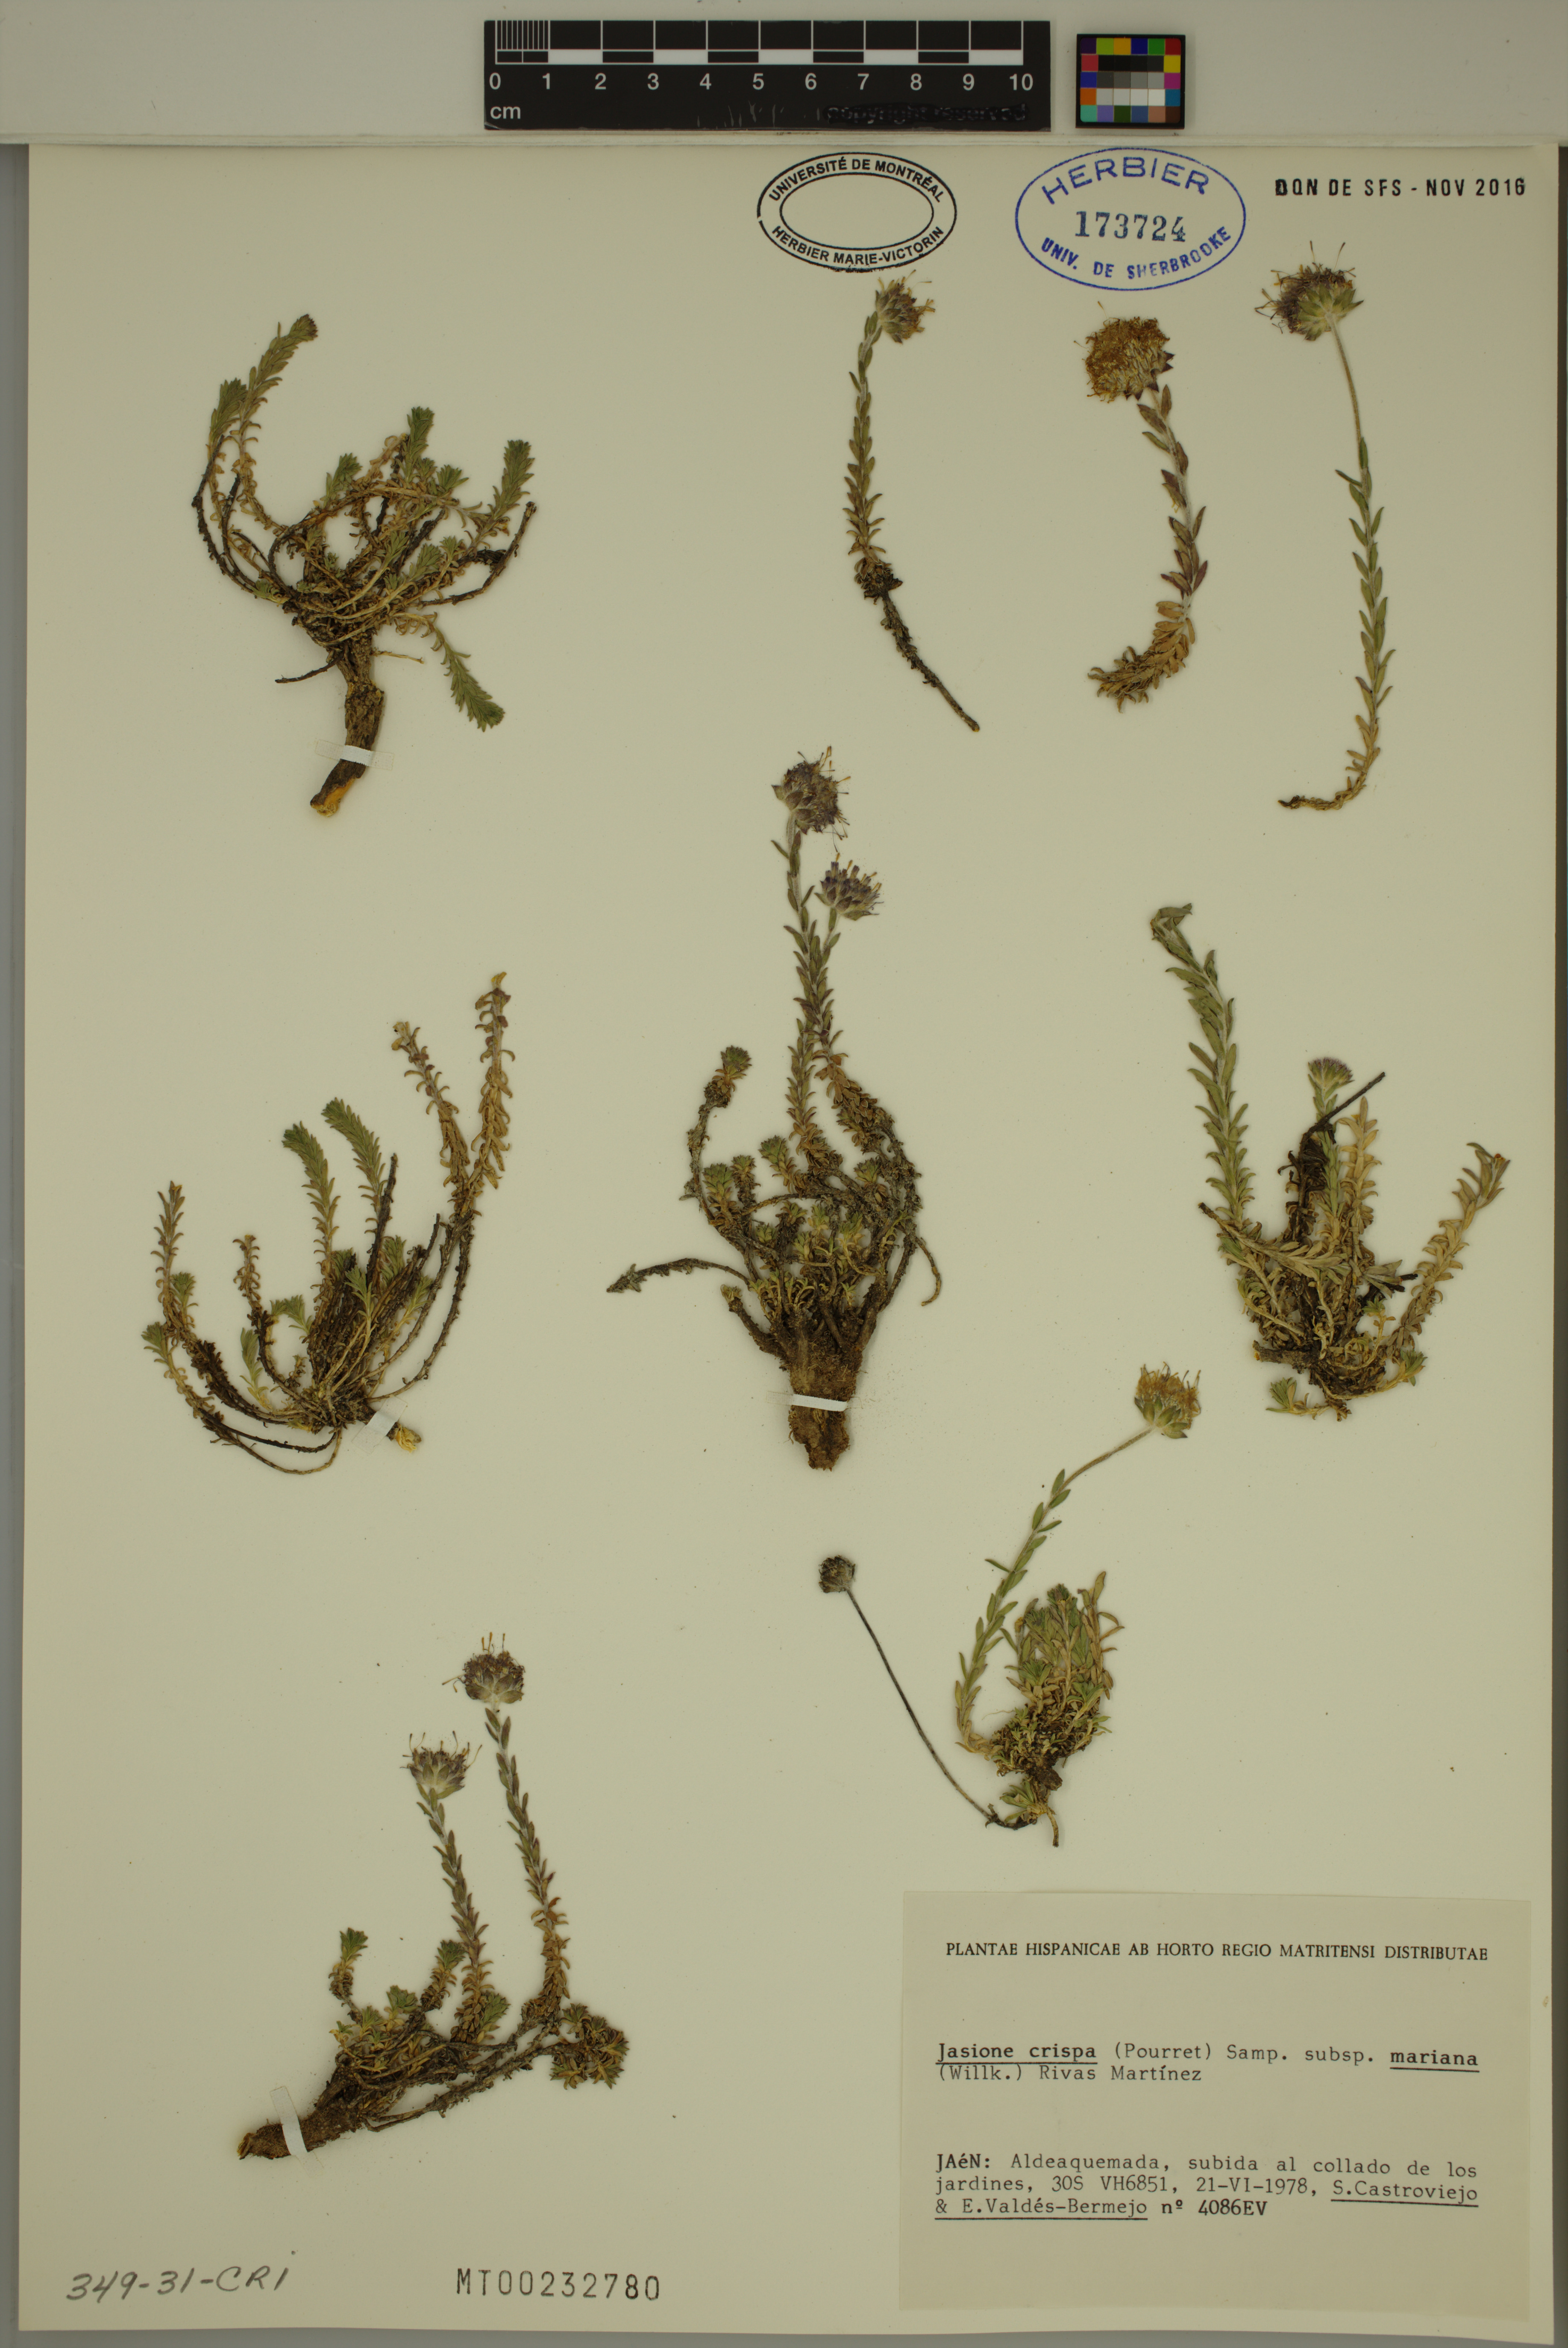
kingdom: Plantae
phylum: Tracheophyta
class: Magnoliopsida
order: Asterales
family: Campanulaceae
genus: Jasione
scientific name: Jasione crispa
